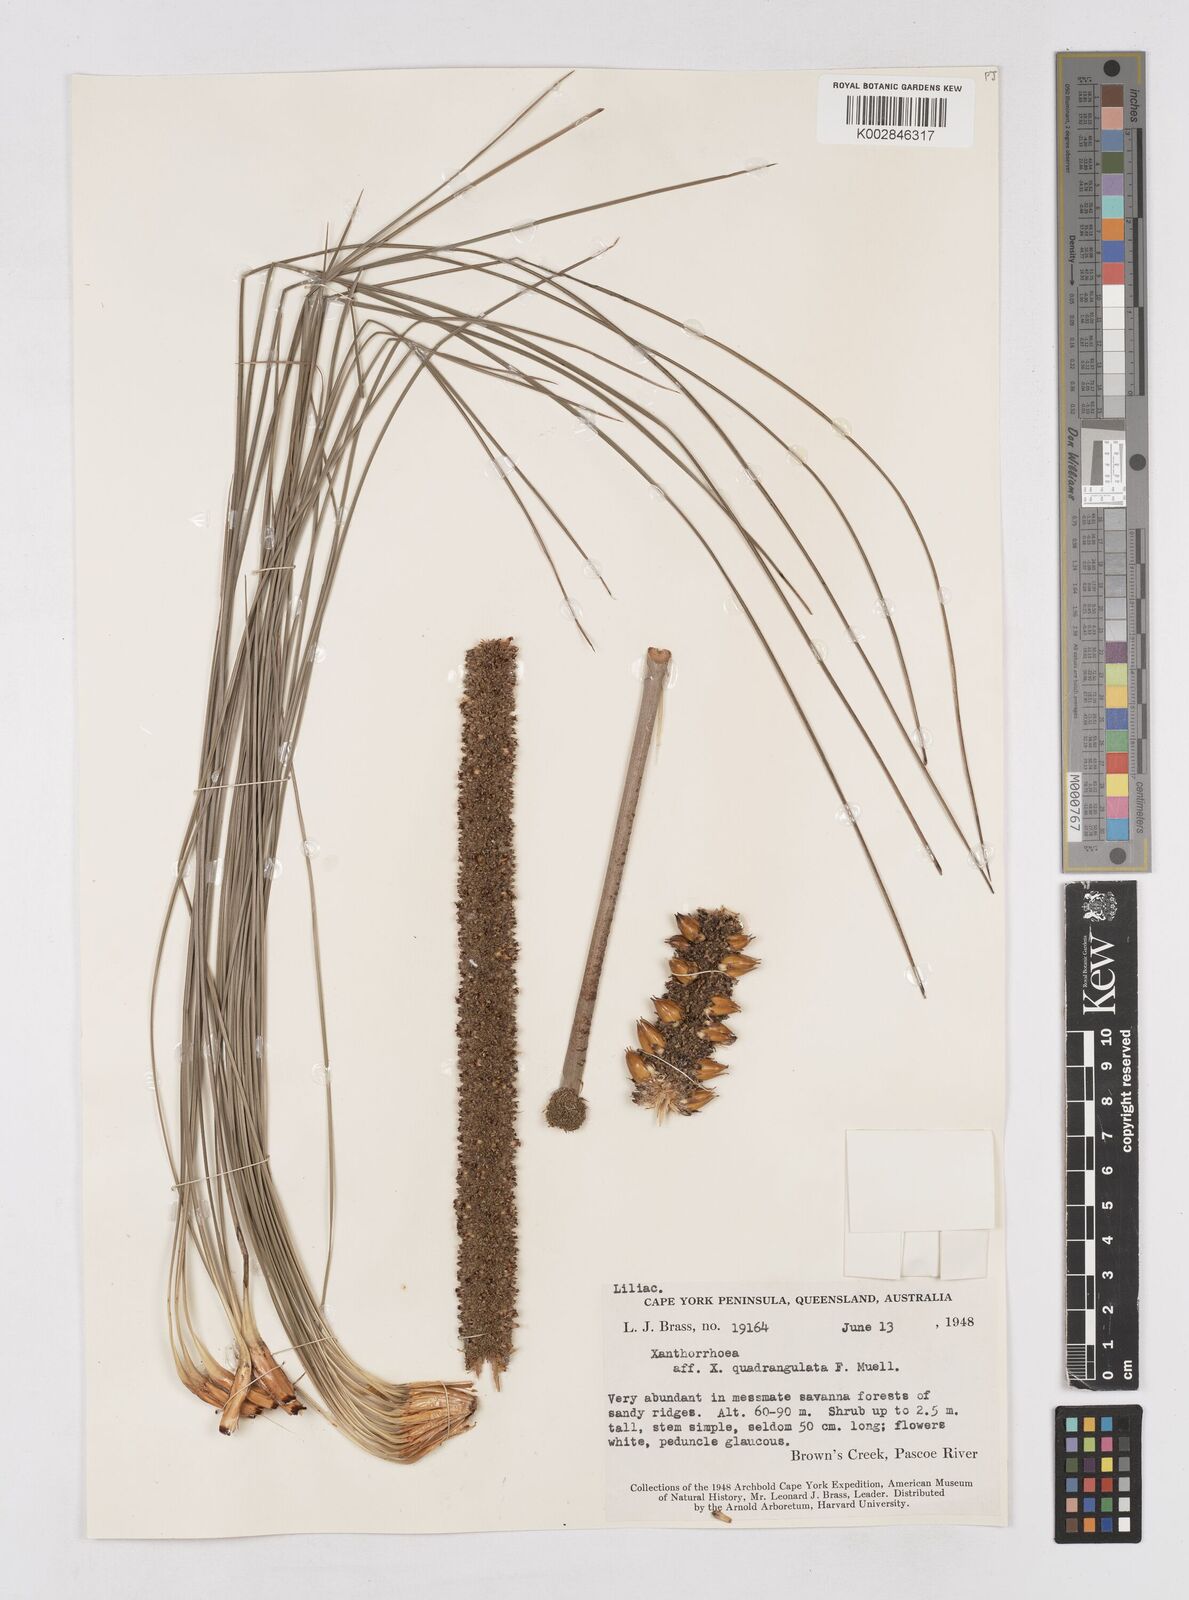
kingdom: Plantae
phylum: Tracheophyta
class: Liliopsida
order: Asparagales
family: Asphodelaceae
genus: Xanthorrhoea
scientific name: Xanthorrhoea quadrangulata
